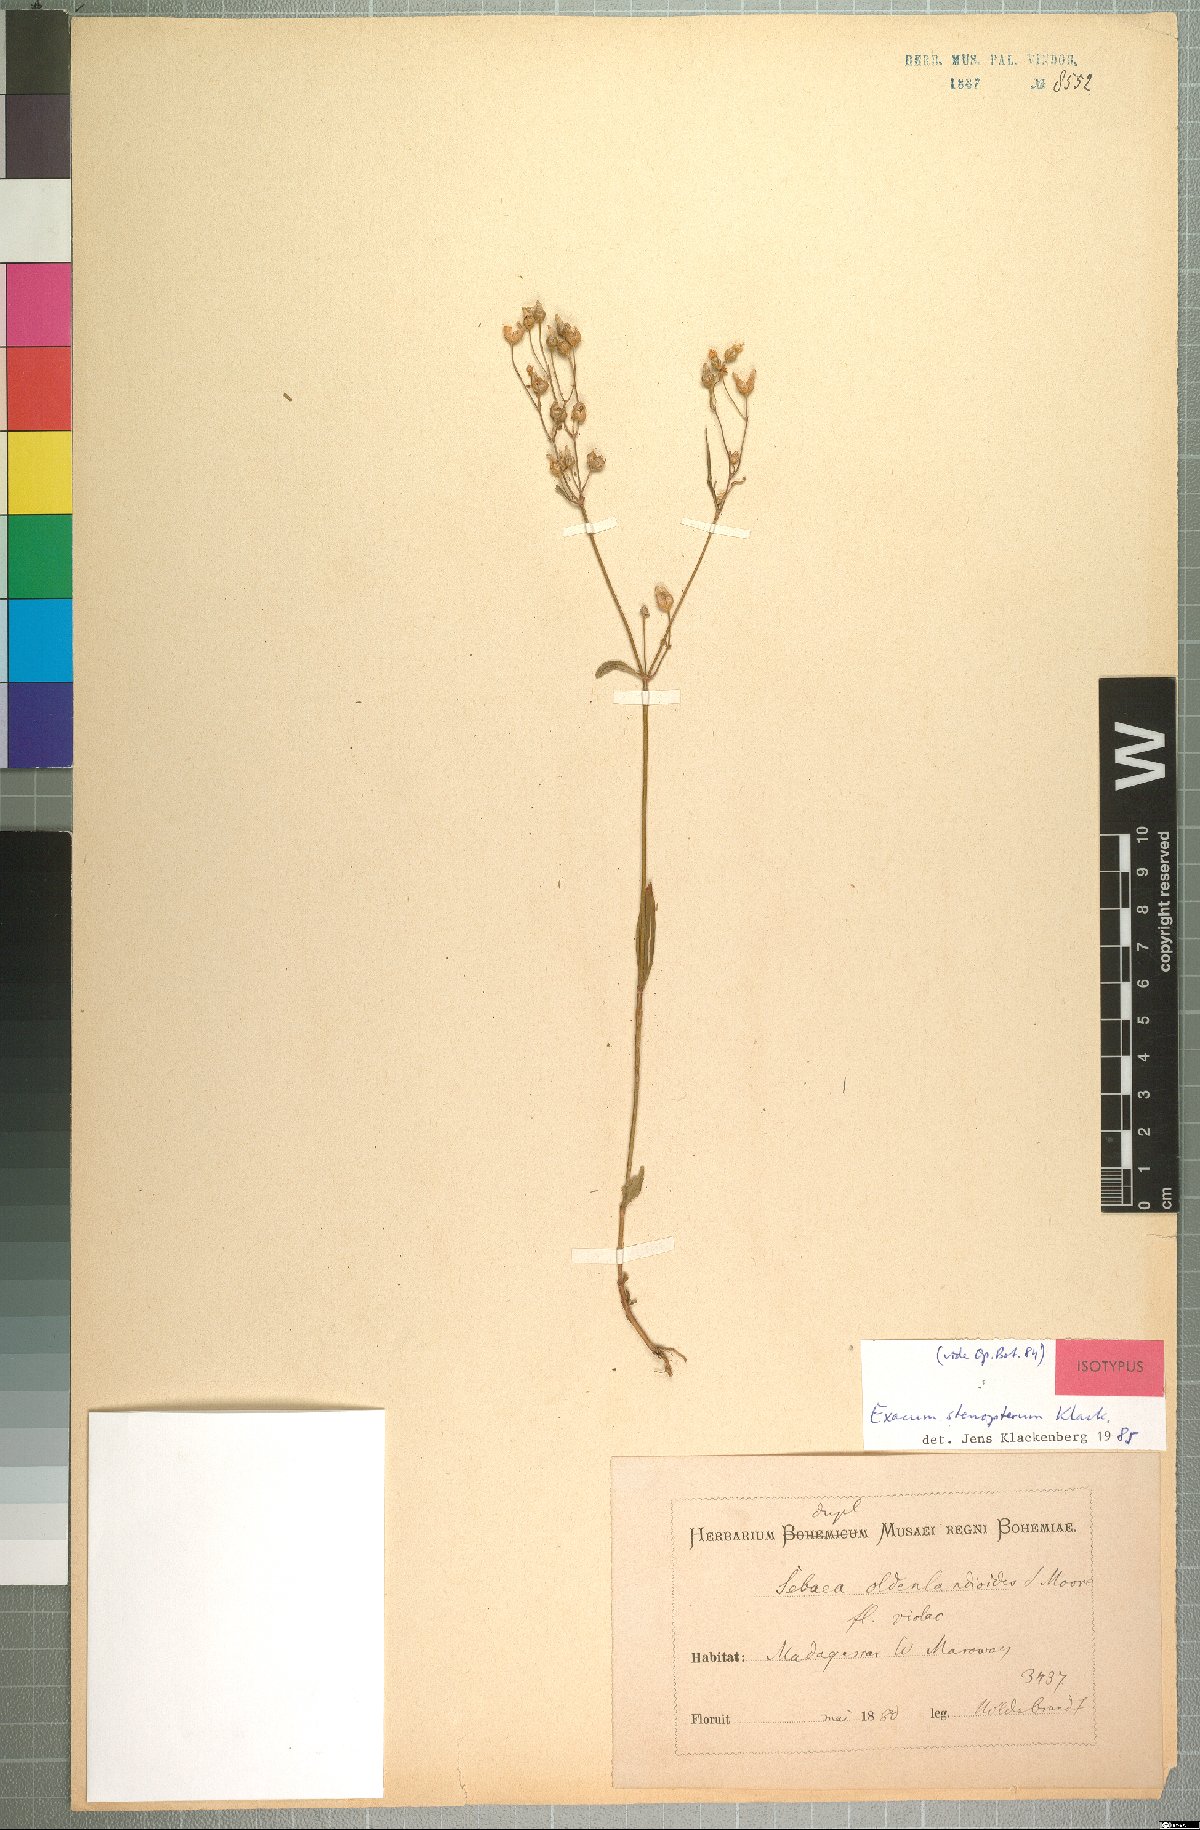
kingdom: Plantae
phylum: Tracheophyta
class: Magnoliopsida
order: Gentianales
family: Gentianaceae
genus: Exacum
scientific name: Exacum stenopterum
